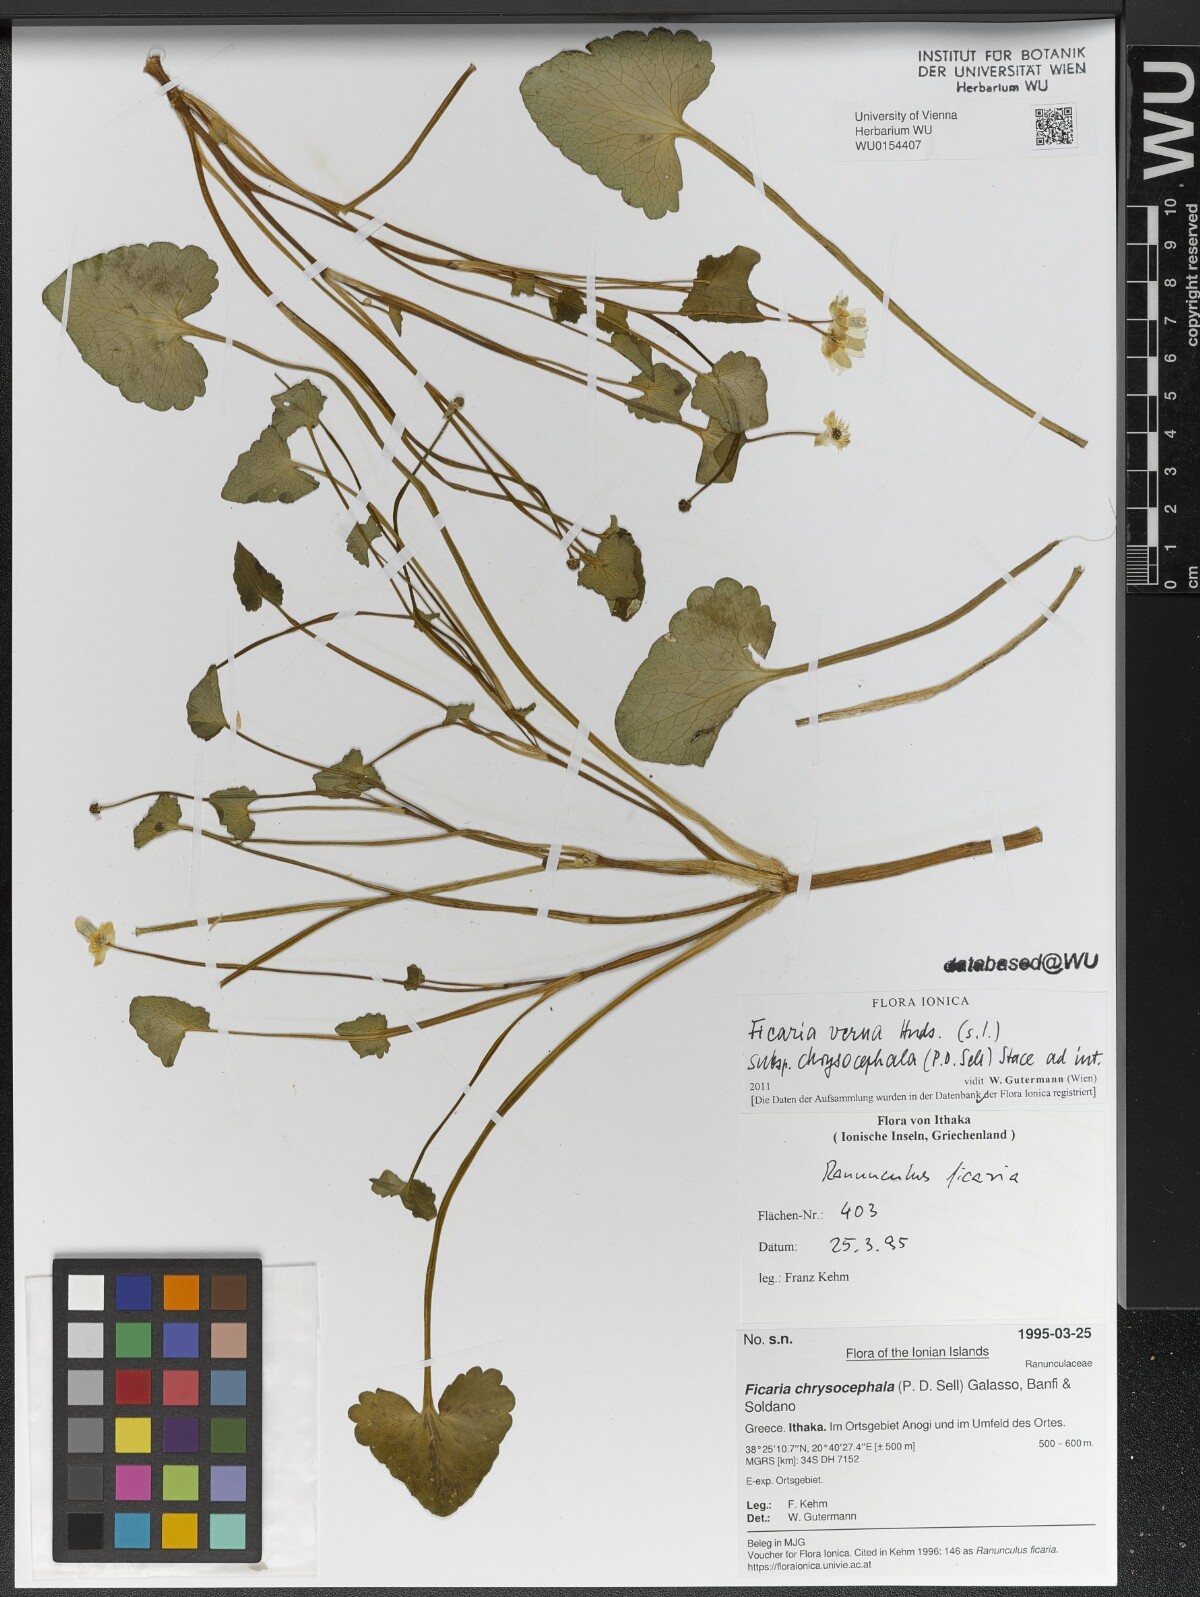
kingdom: Plantae
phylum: Tracheophyta
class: Magnoliopsida
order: Ranunculales
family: Ranunculaceae
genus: Ficaria
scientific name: Ficaria chrysocephala
